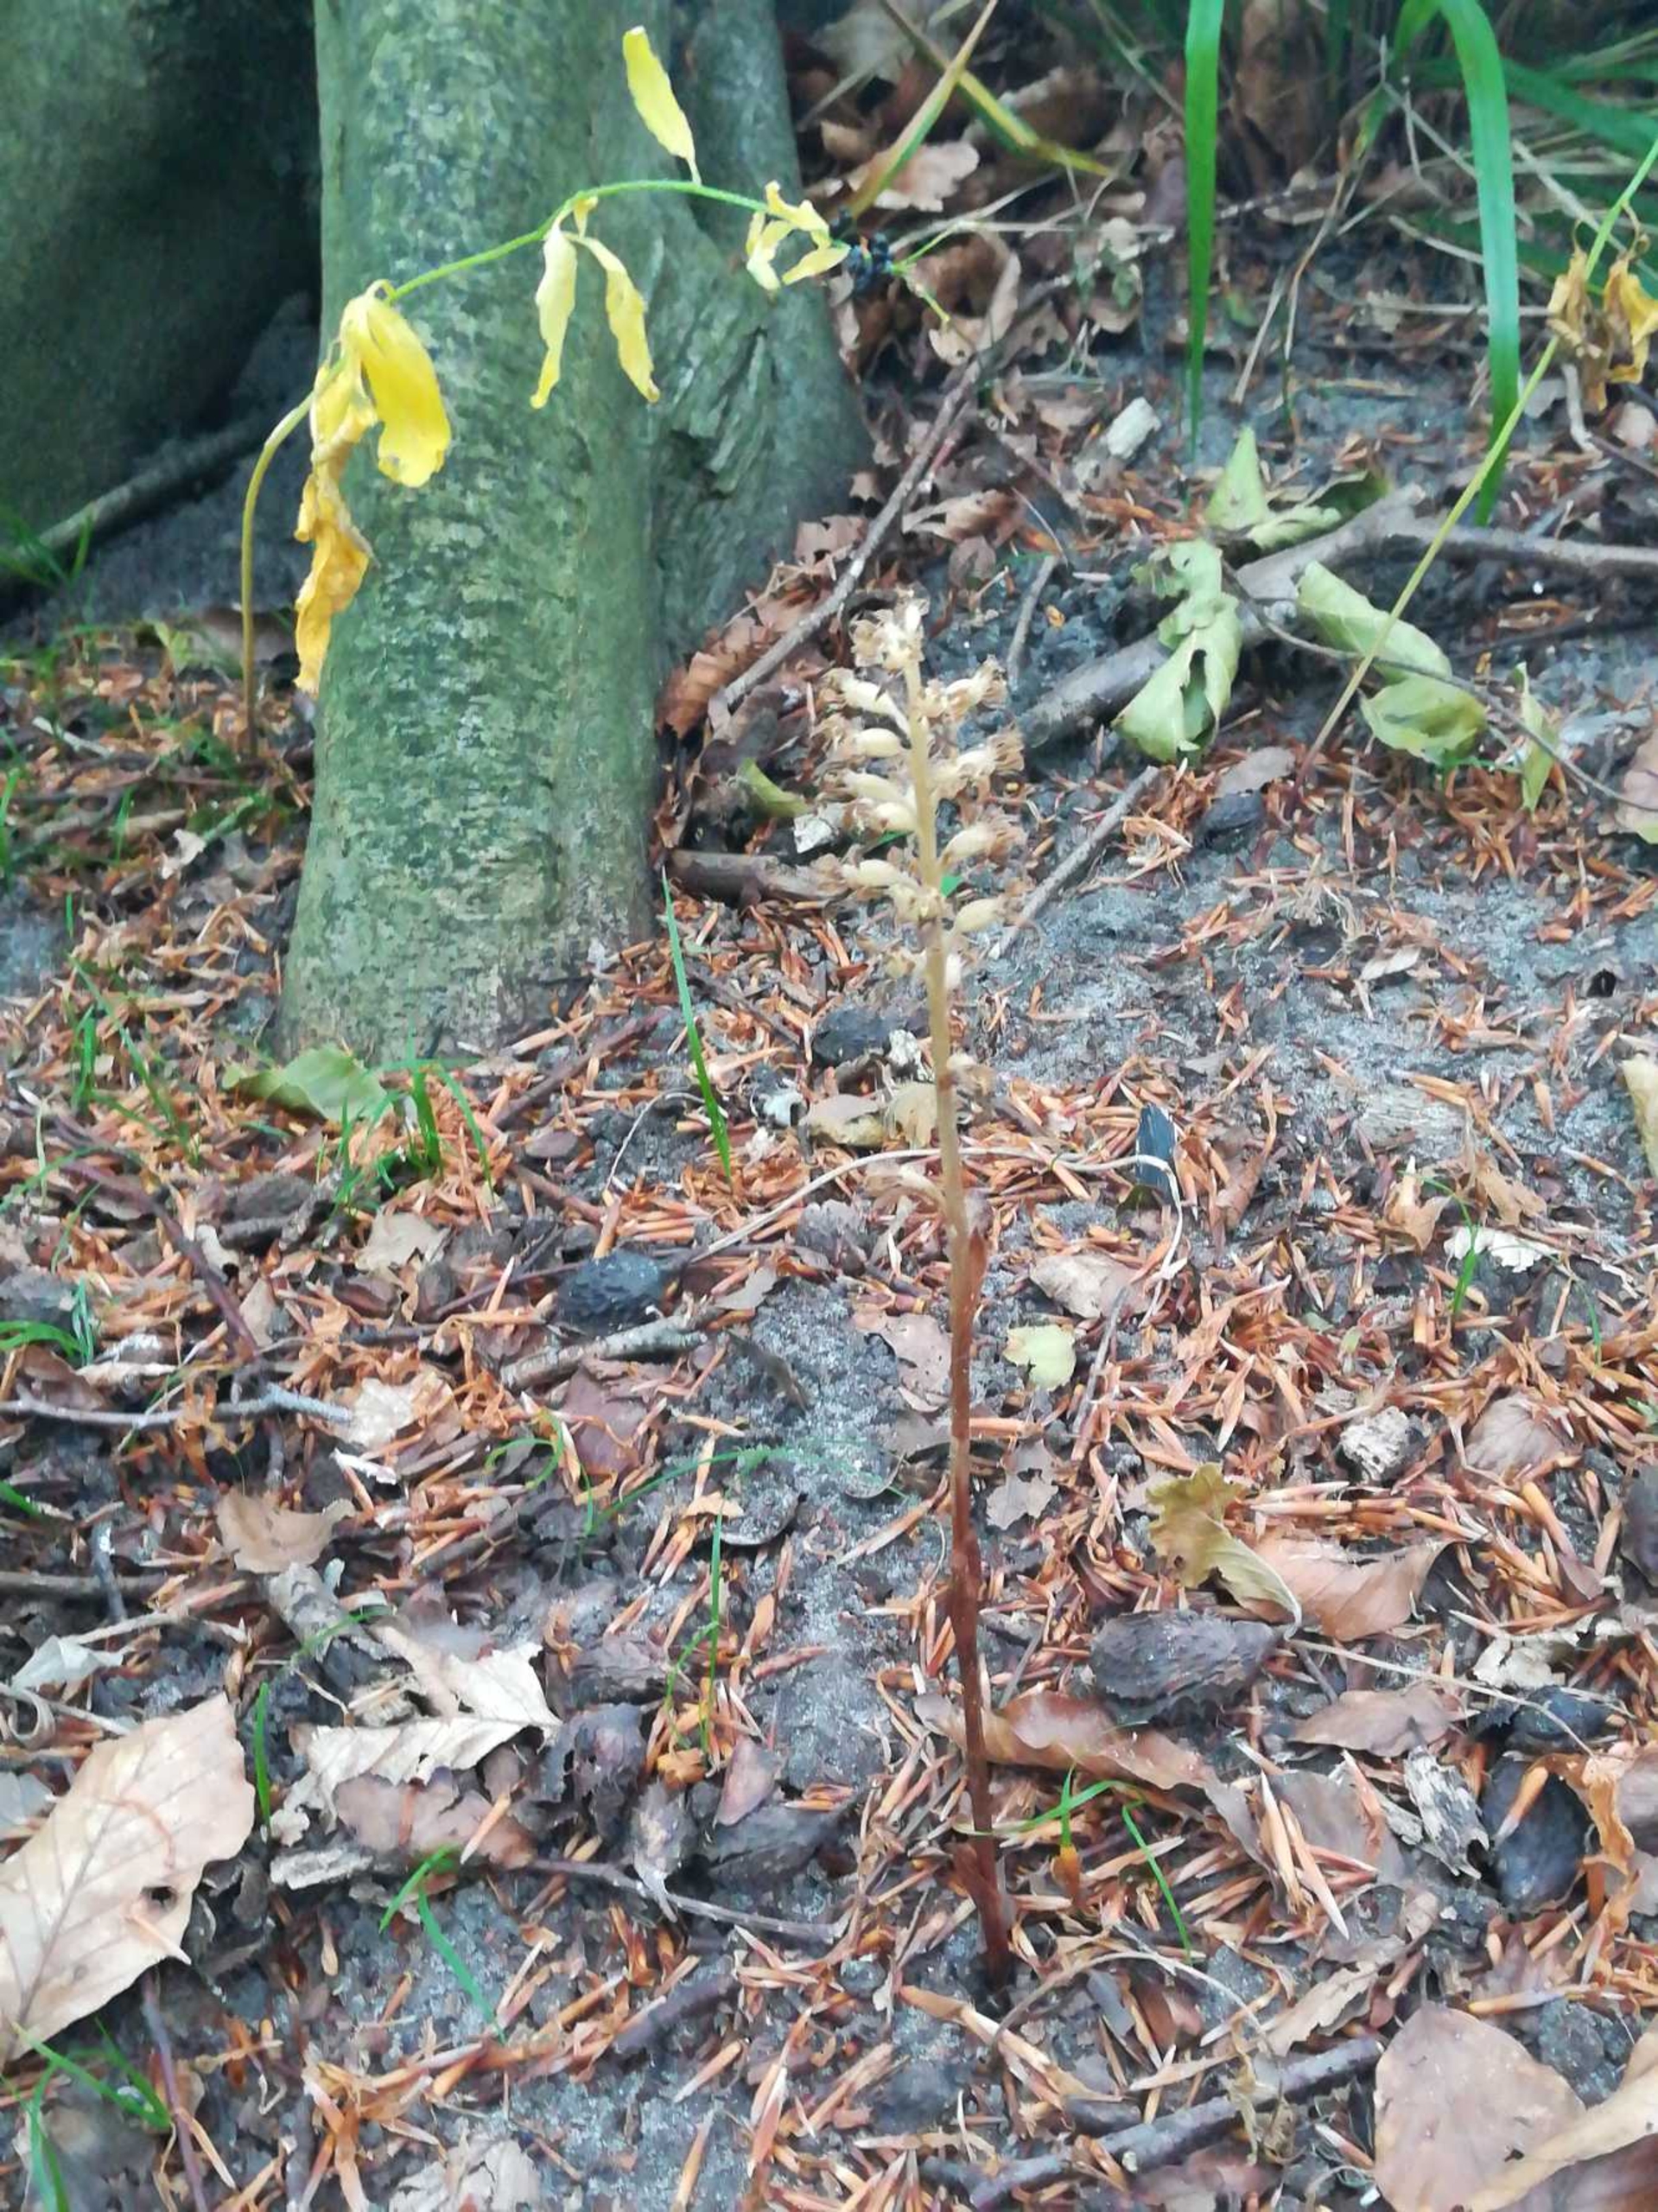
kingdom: Plantae
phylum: Tracheophyta
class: Liliopsida
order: Asparagales
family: Orchidaceae
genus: Neottia
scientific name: Neottia nidus-avis
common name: Rederod
